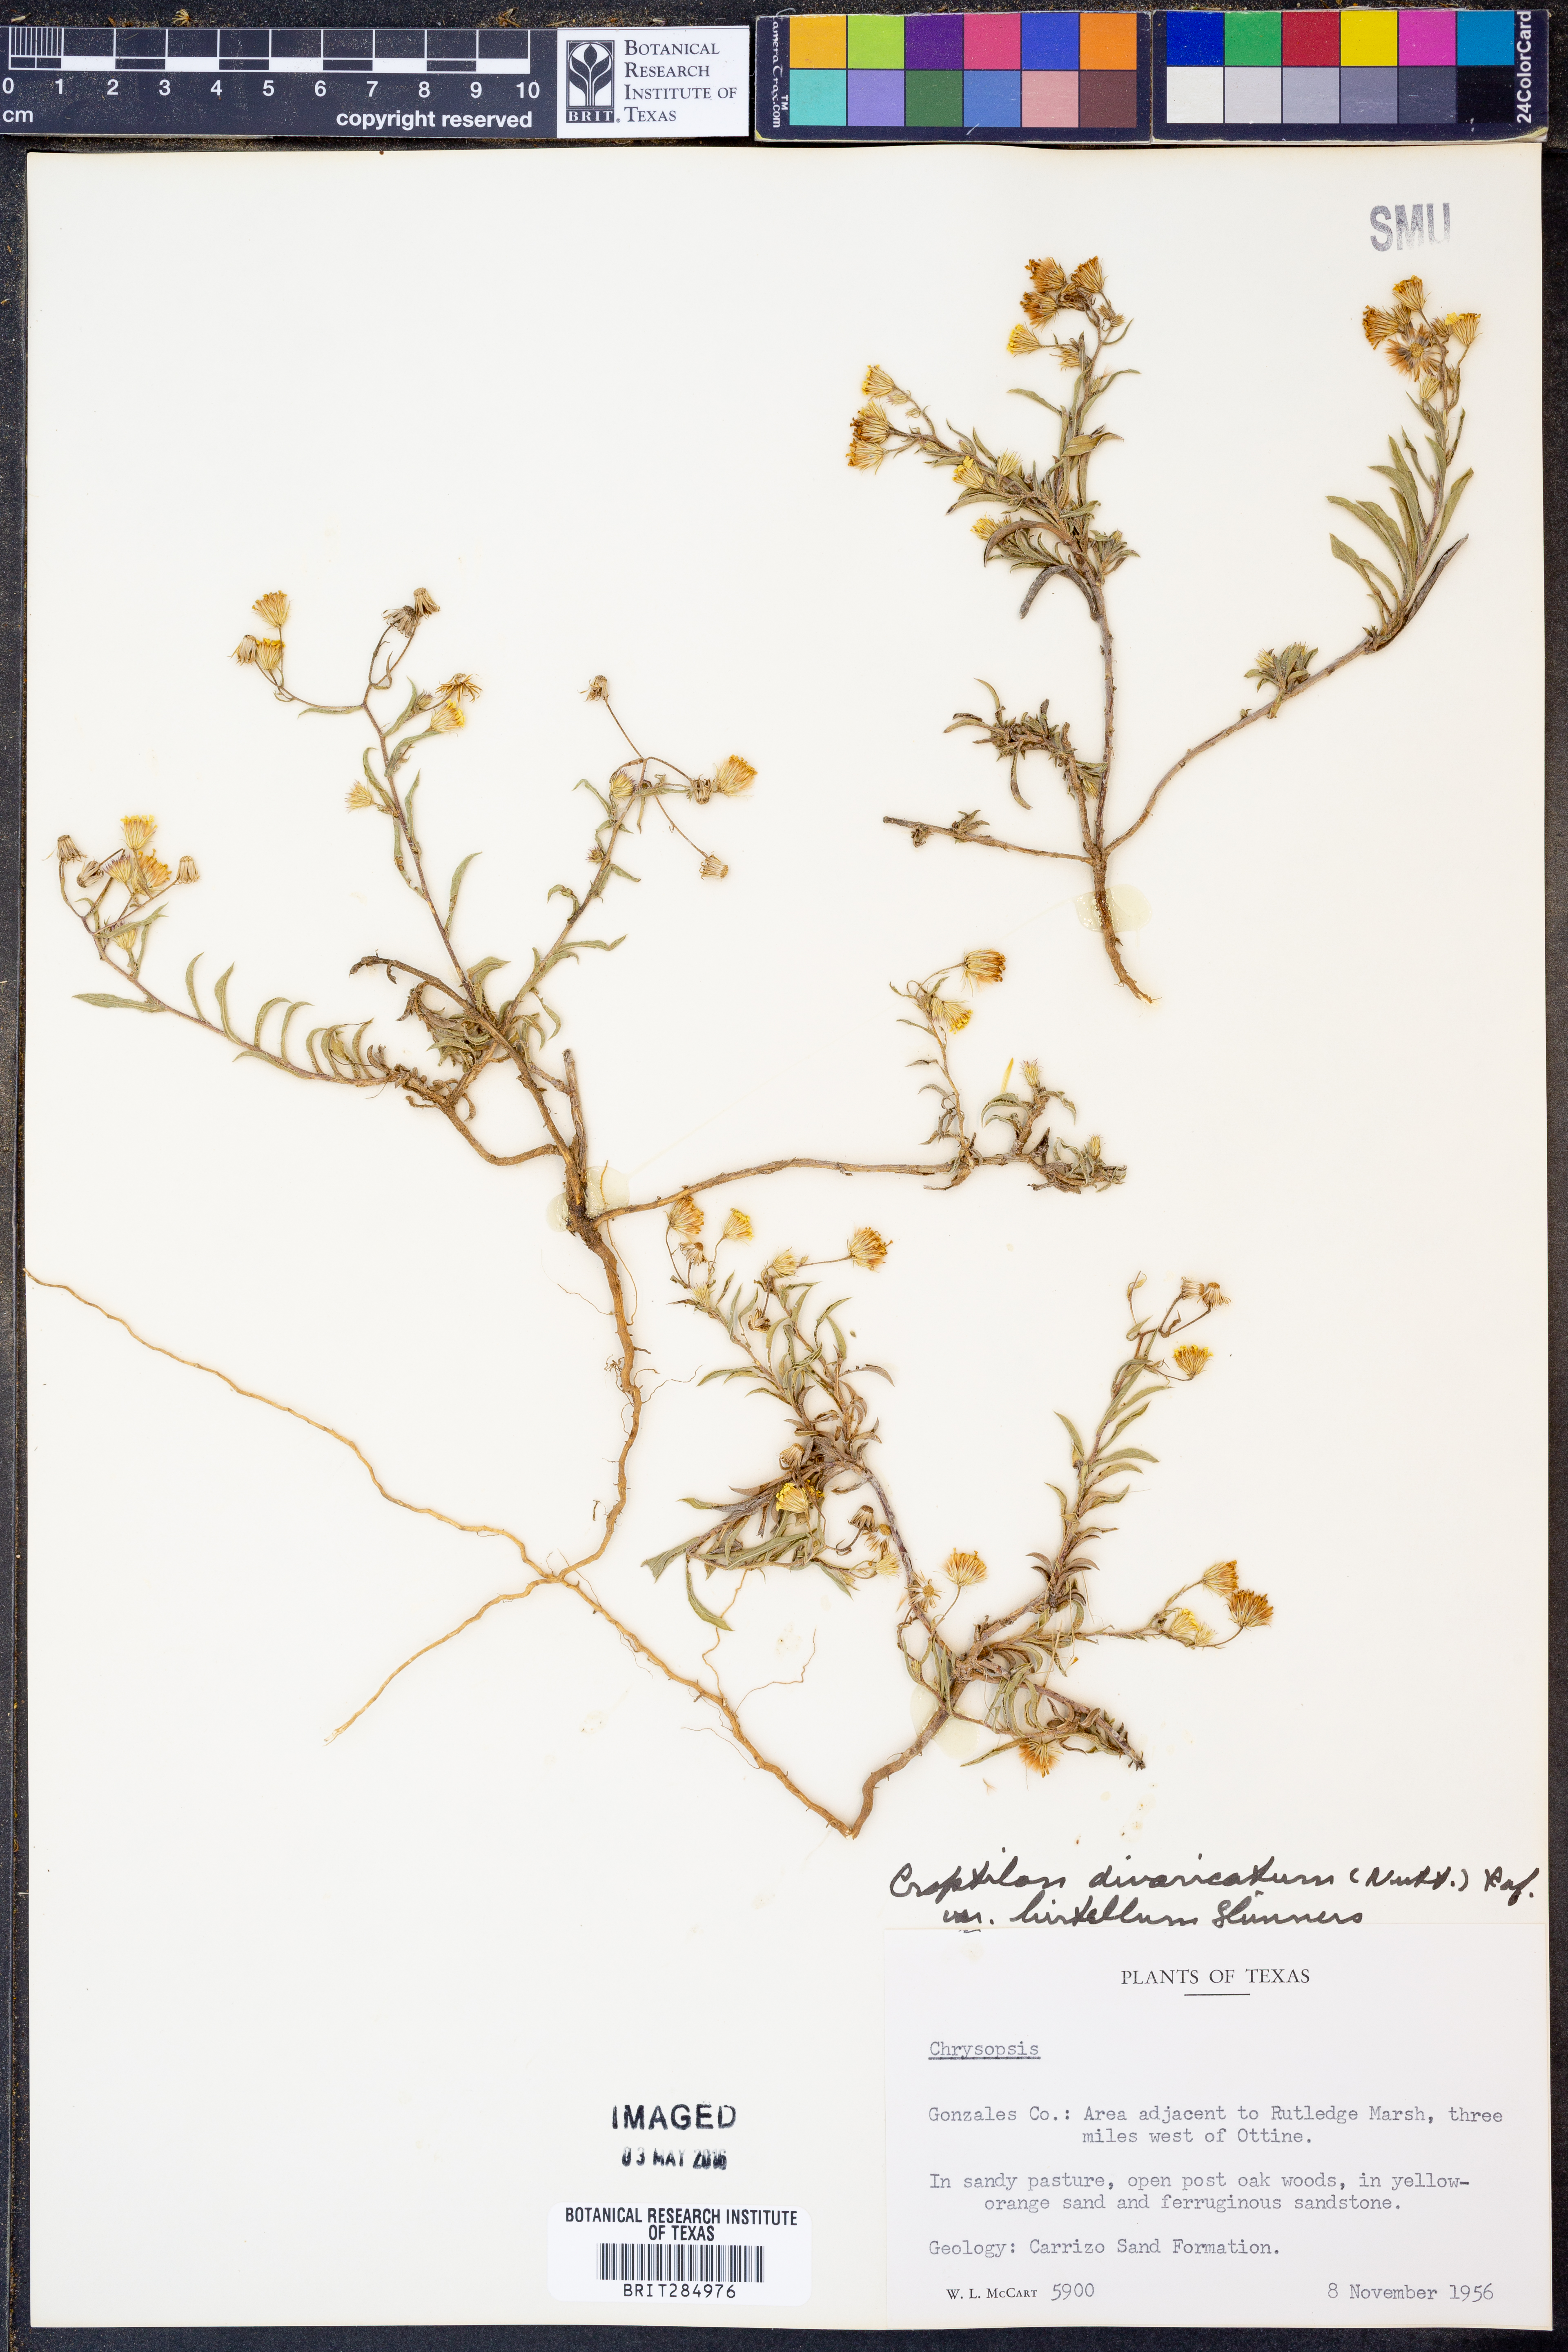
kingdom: Plantae
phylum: Tracheophyta
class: Magnoliopsida
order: Asterales
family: Asteraceae
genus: Croptilon
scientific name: Croptilon rigidifolium
